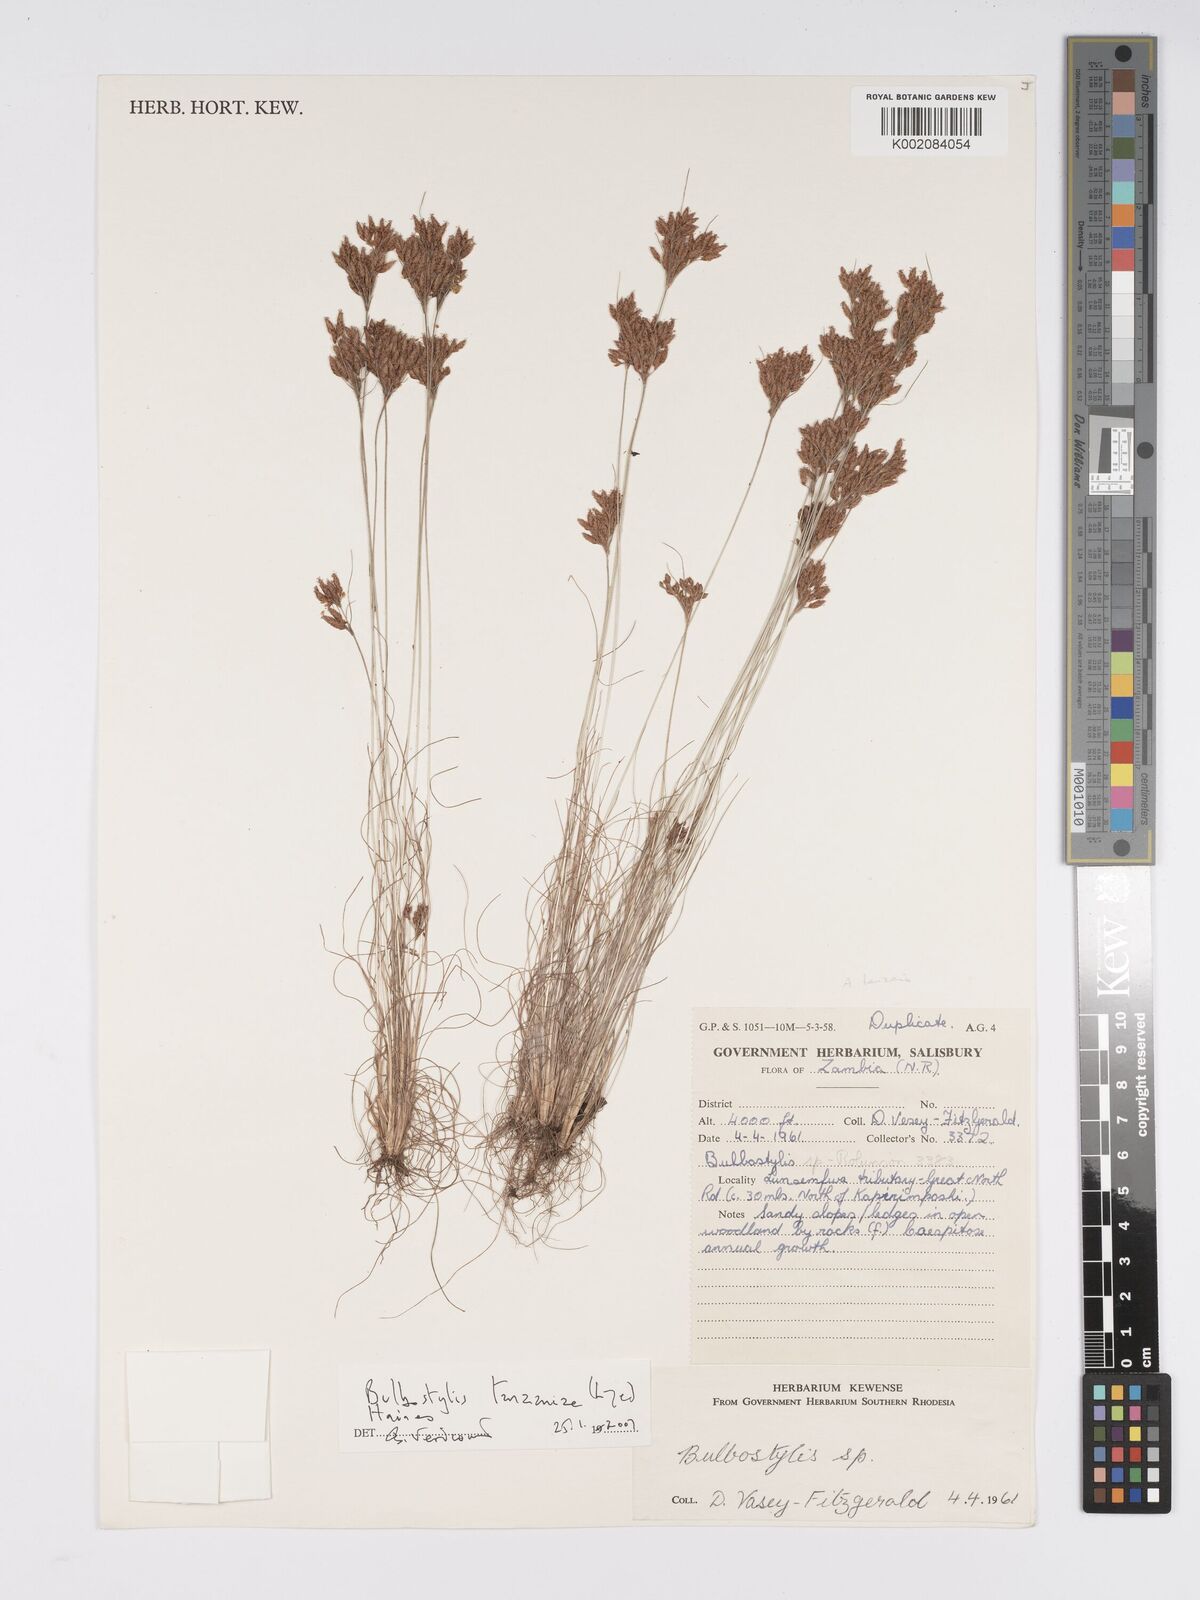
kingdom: Plantae
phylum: Tracheophyta
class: Liliopsida
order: Poales
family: Cyperaceae
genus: Bulbostylis
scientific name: Bulbostylis tanzaniae
